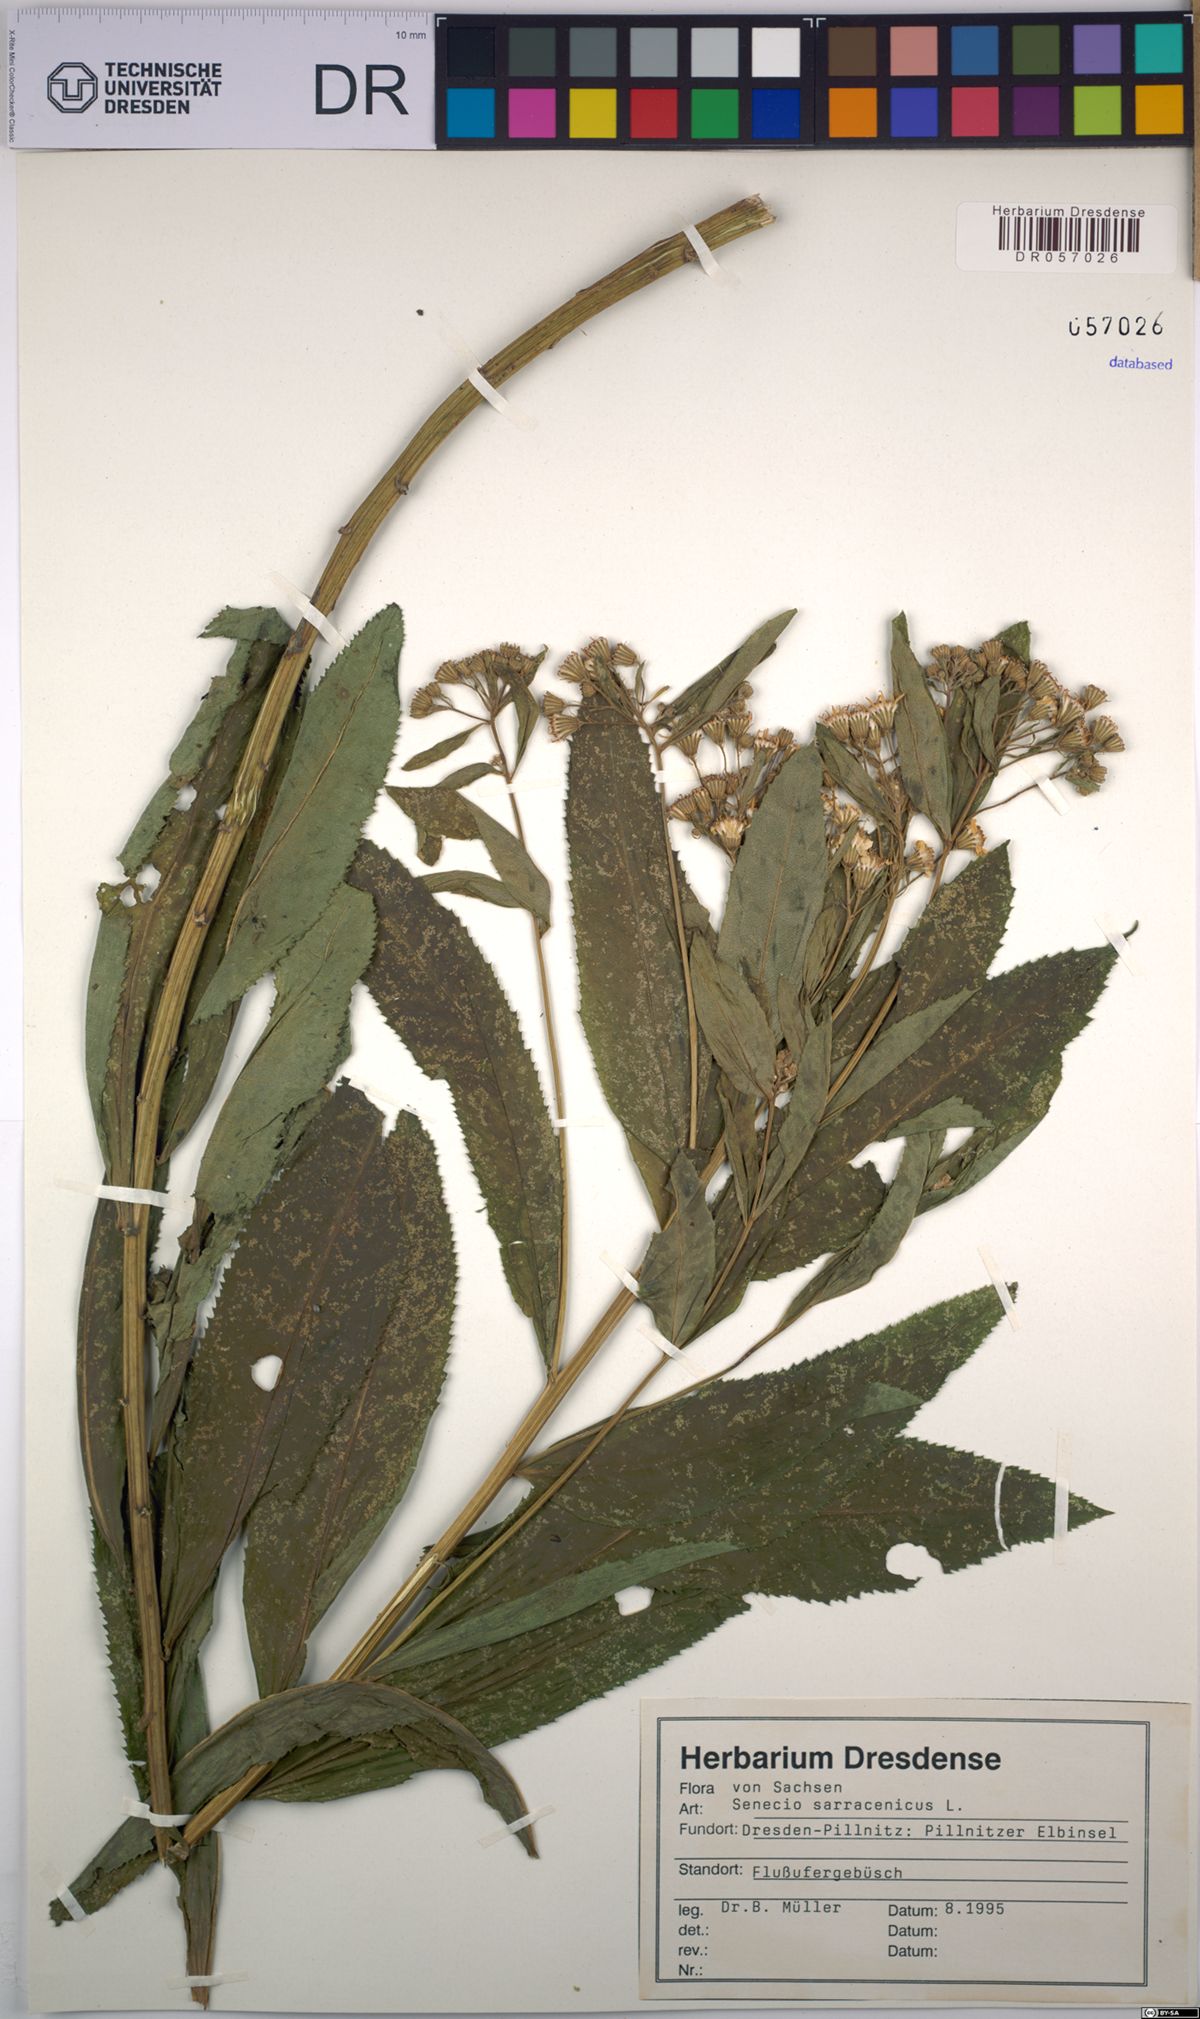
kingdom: Plantae
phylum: Tracheophyta
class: Magnoliopsida
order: Asterales
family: Asteraceae
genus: Senecio
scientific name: Senecio sarracenicus
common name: Broad-leaved ragwort
